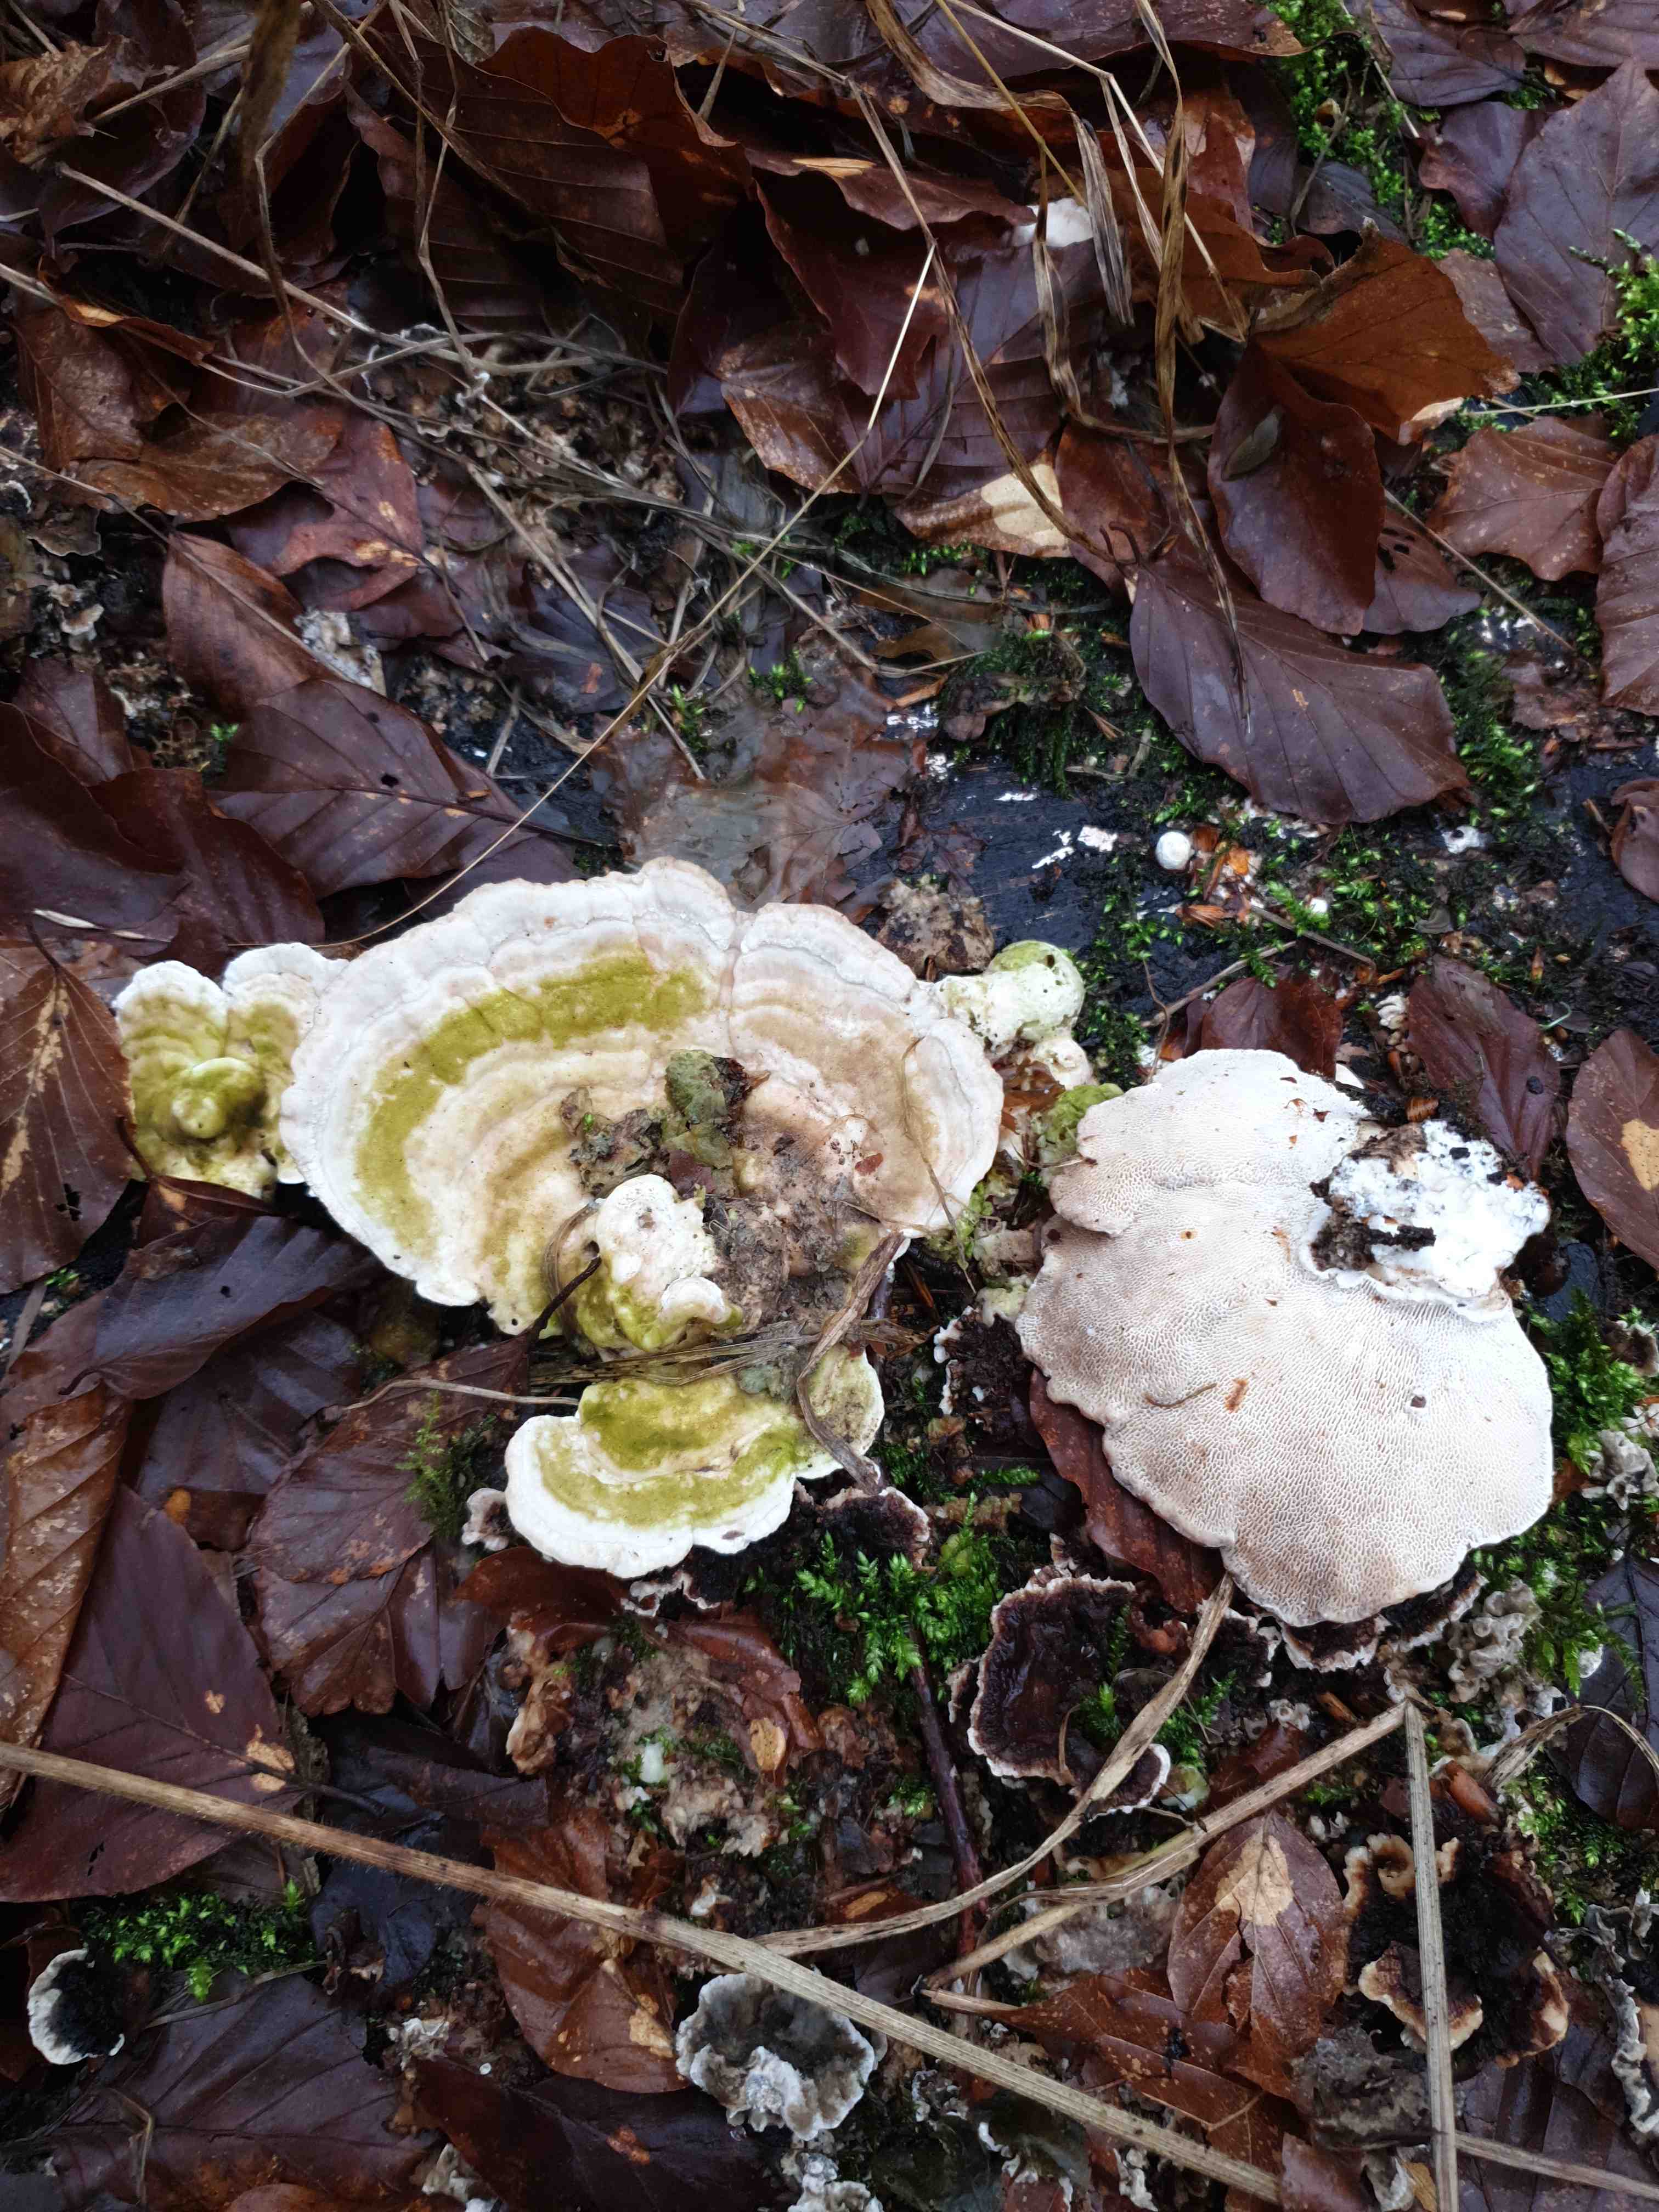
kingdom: Fungi
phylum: Basidiomycota
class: Agaricomycetes
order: Polyporales
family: Polyporaceae
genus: Trametes
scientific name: Trametes gibbosa
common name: puklet læderporesvamp
